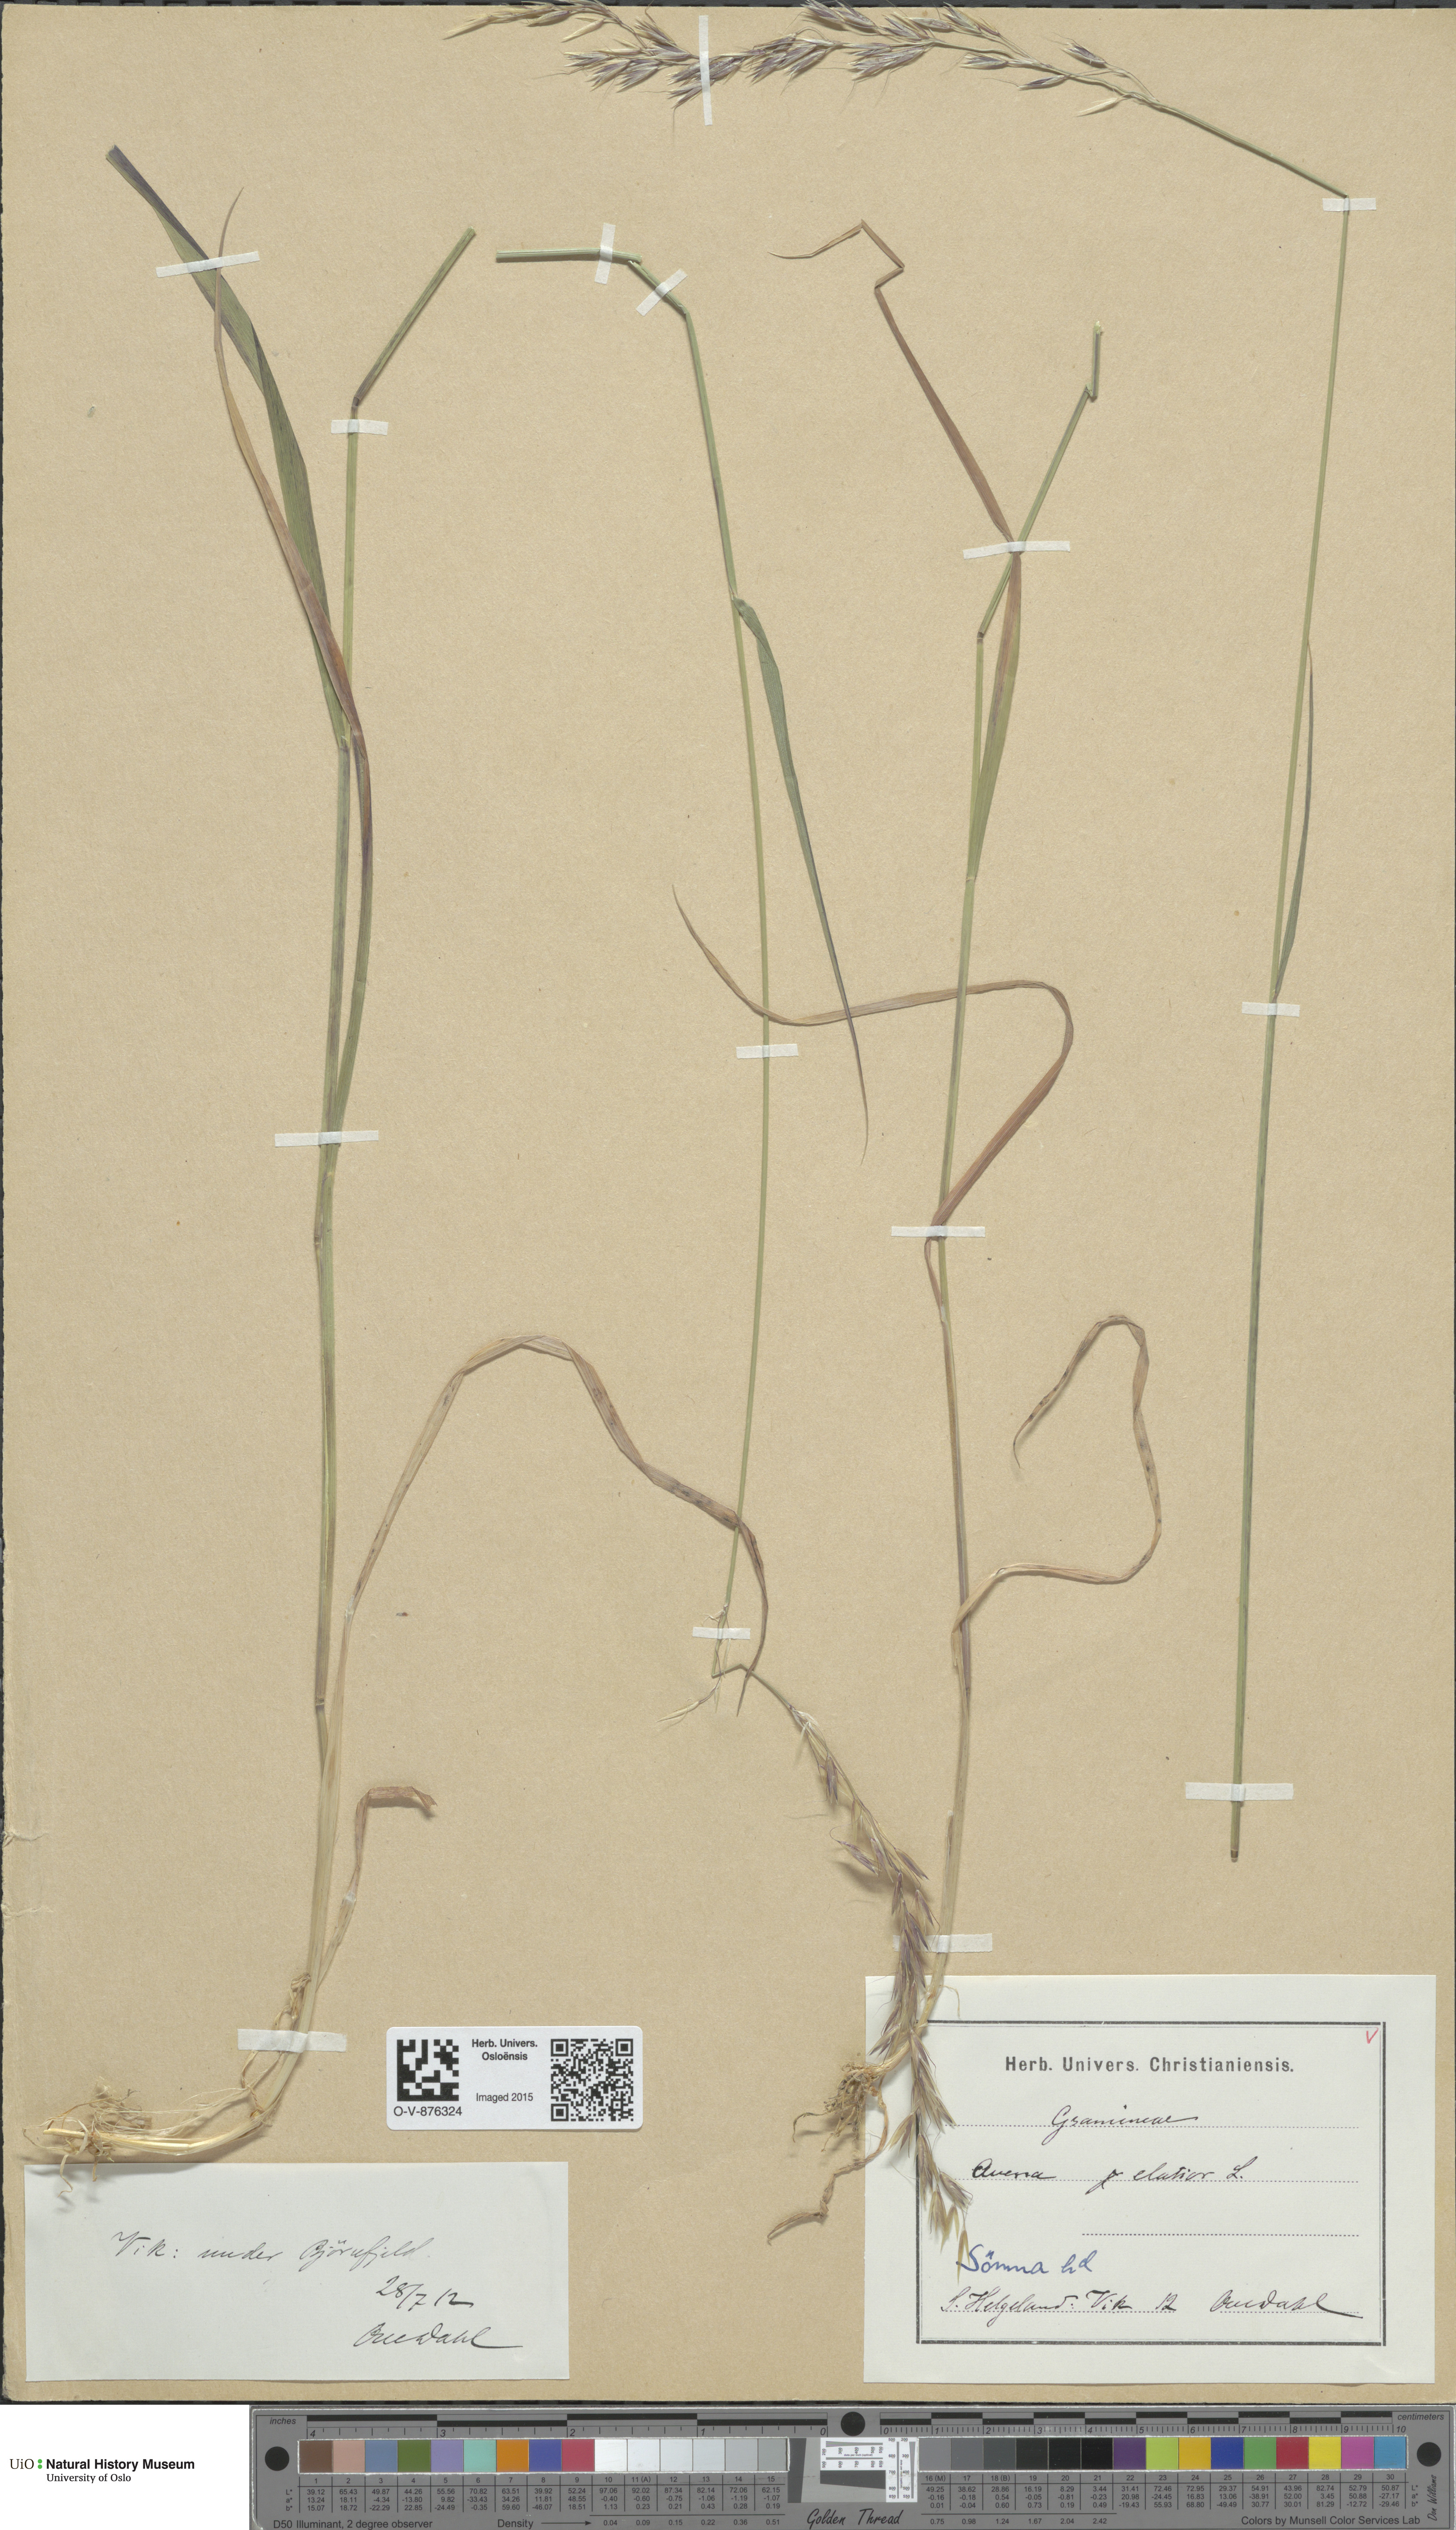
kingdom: Plantae
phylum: Tracheophyta
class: Liliopsida
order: Poales
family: Poaceae
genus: Arrhenatherum
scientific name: Arrhenatherum elatius
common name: Tall oatgrass
